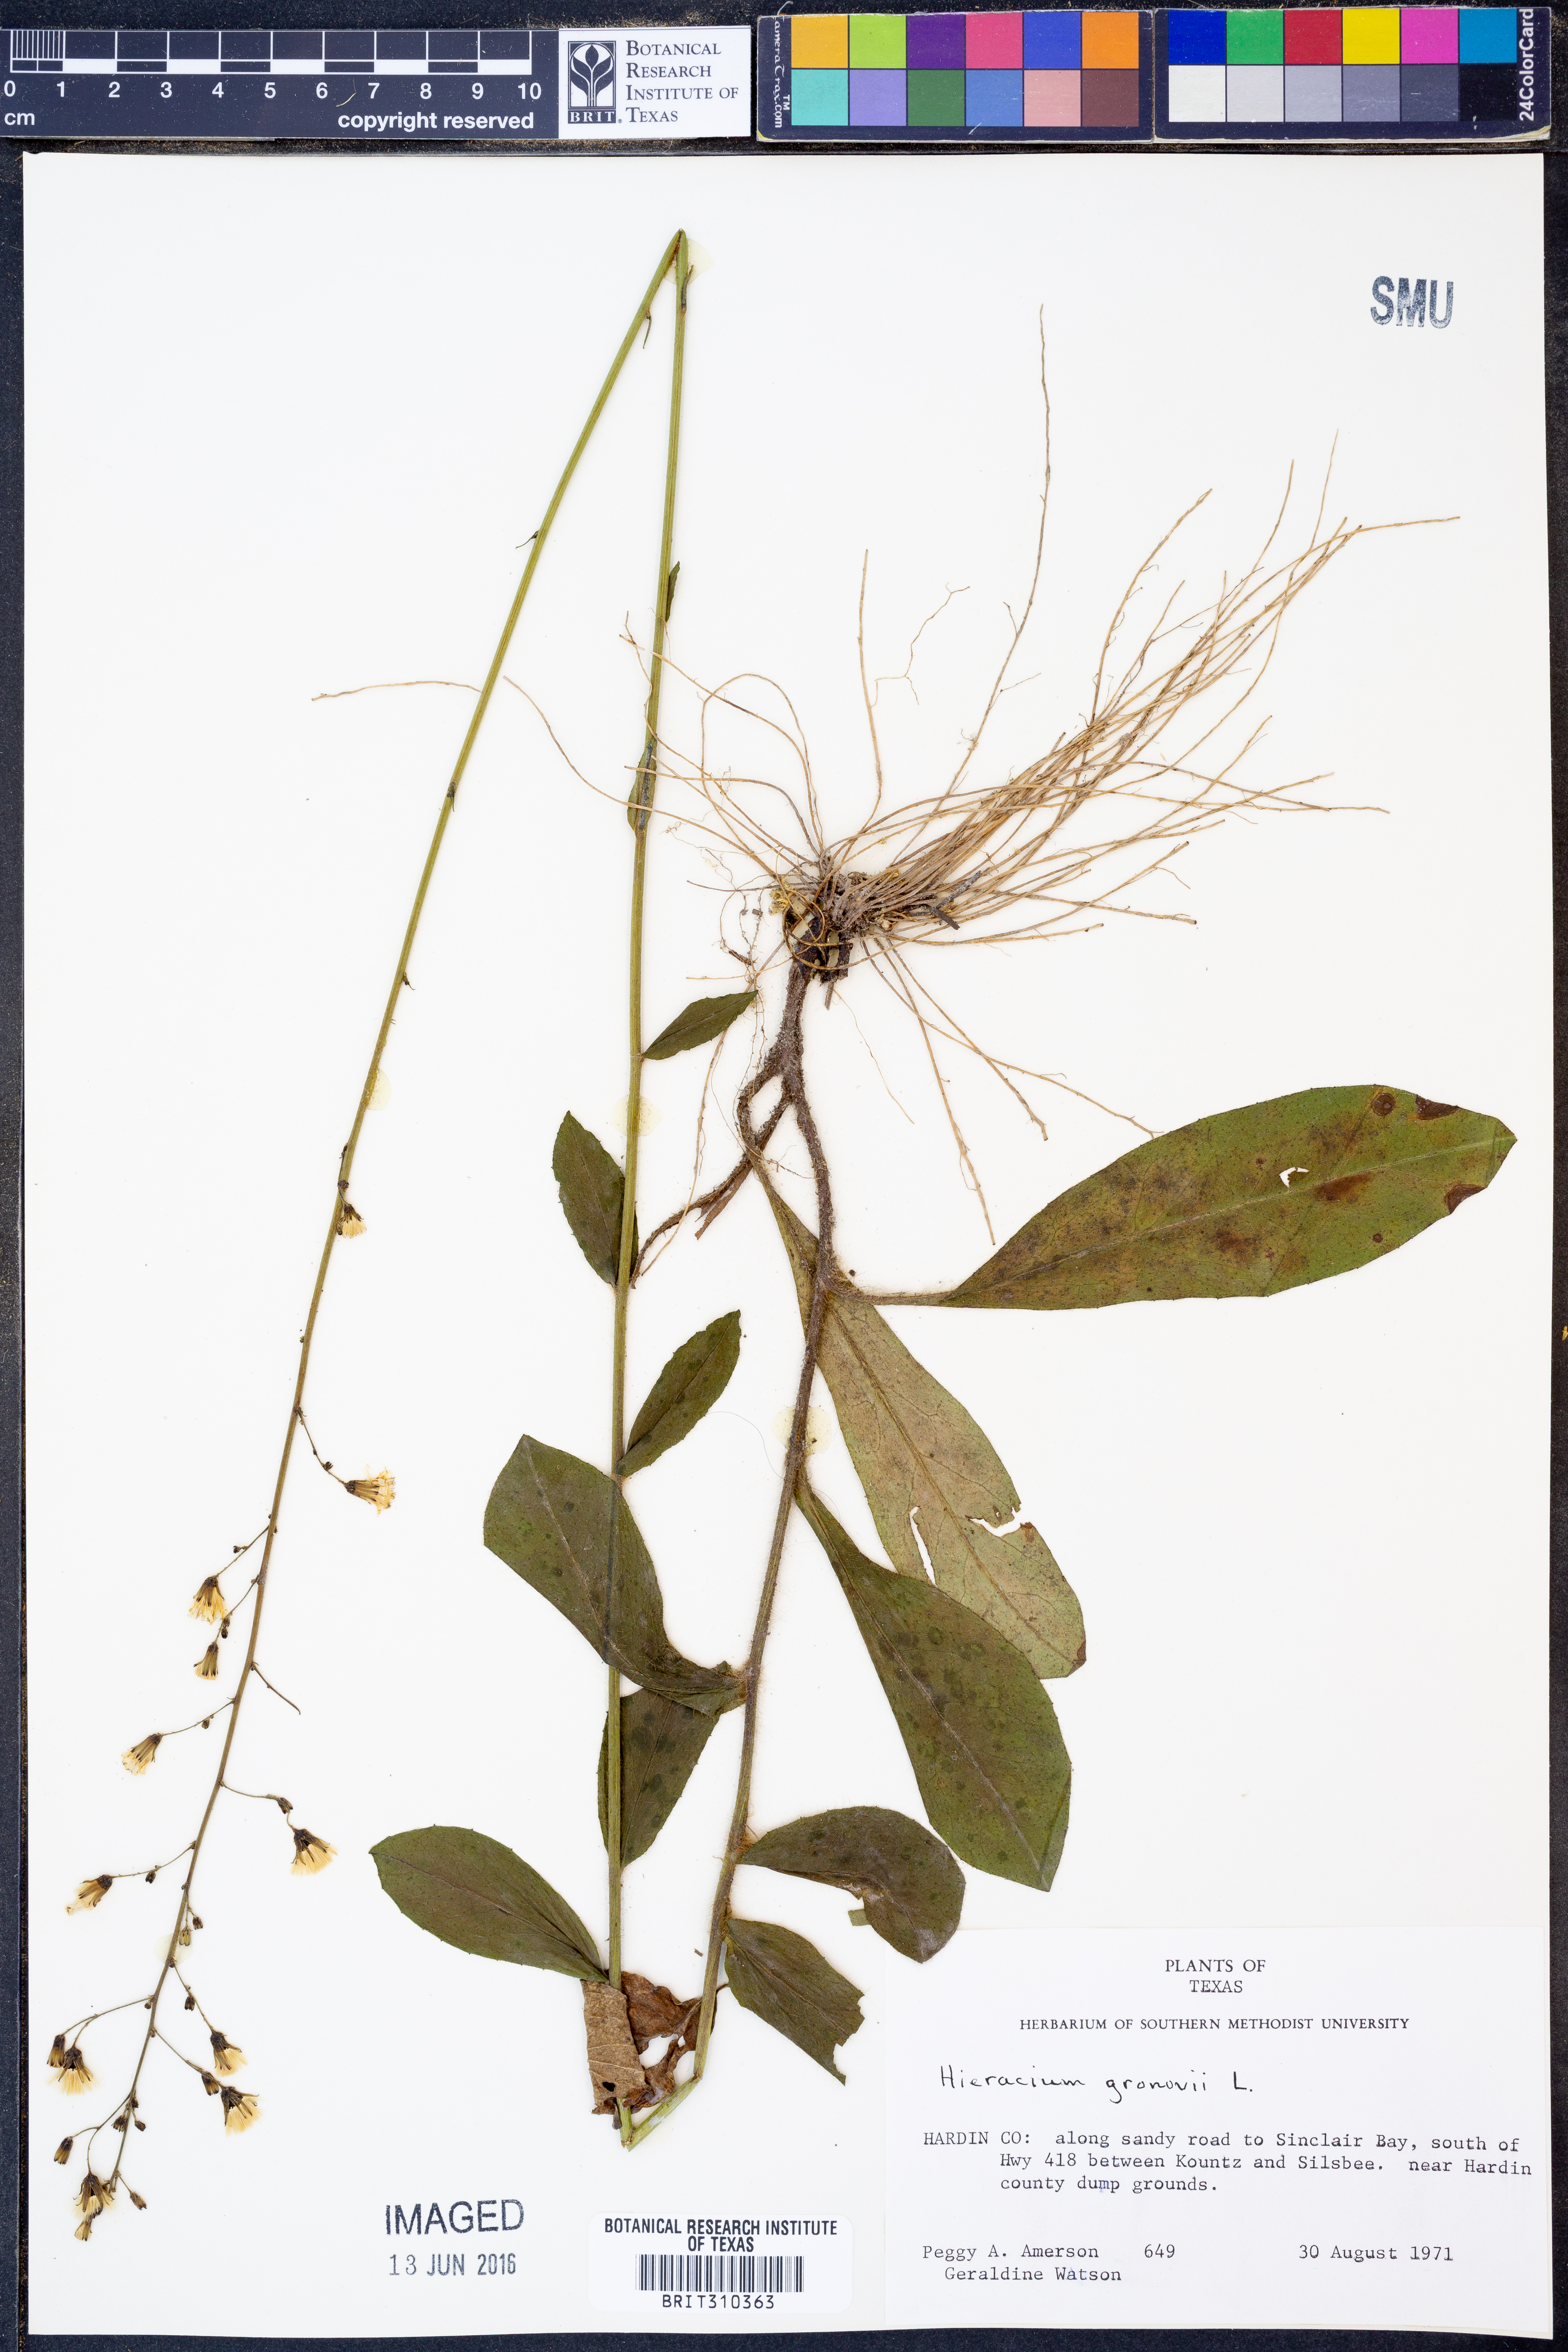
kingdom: Plantae
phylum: Tracheophyta
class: Magnoliopsida
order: Asterales
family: Asteraceae
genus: Hieracium
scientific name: Hieracium gronovii
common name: Beaked hawkweed
